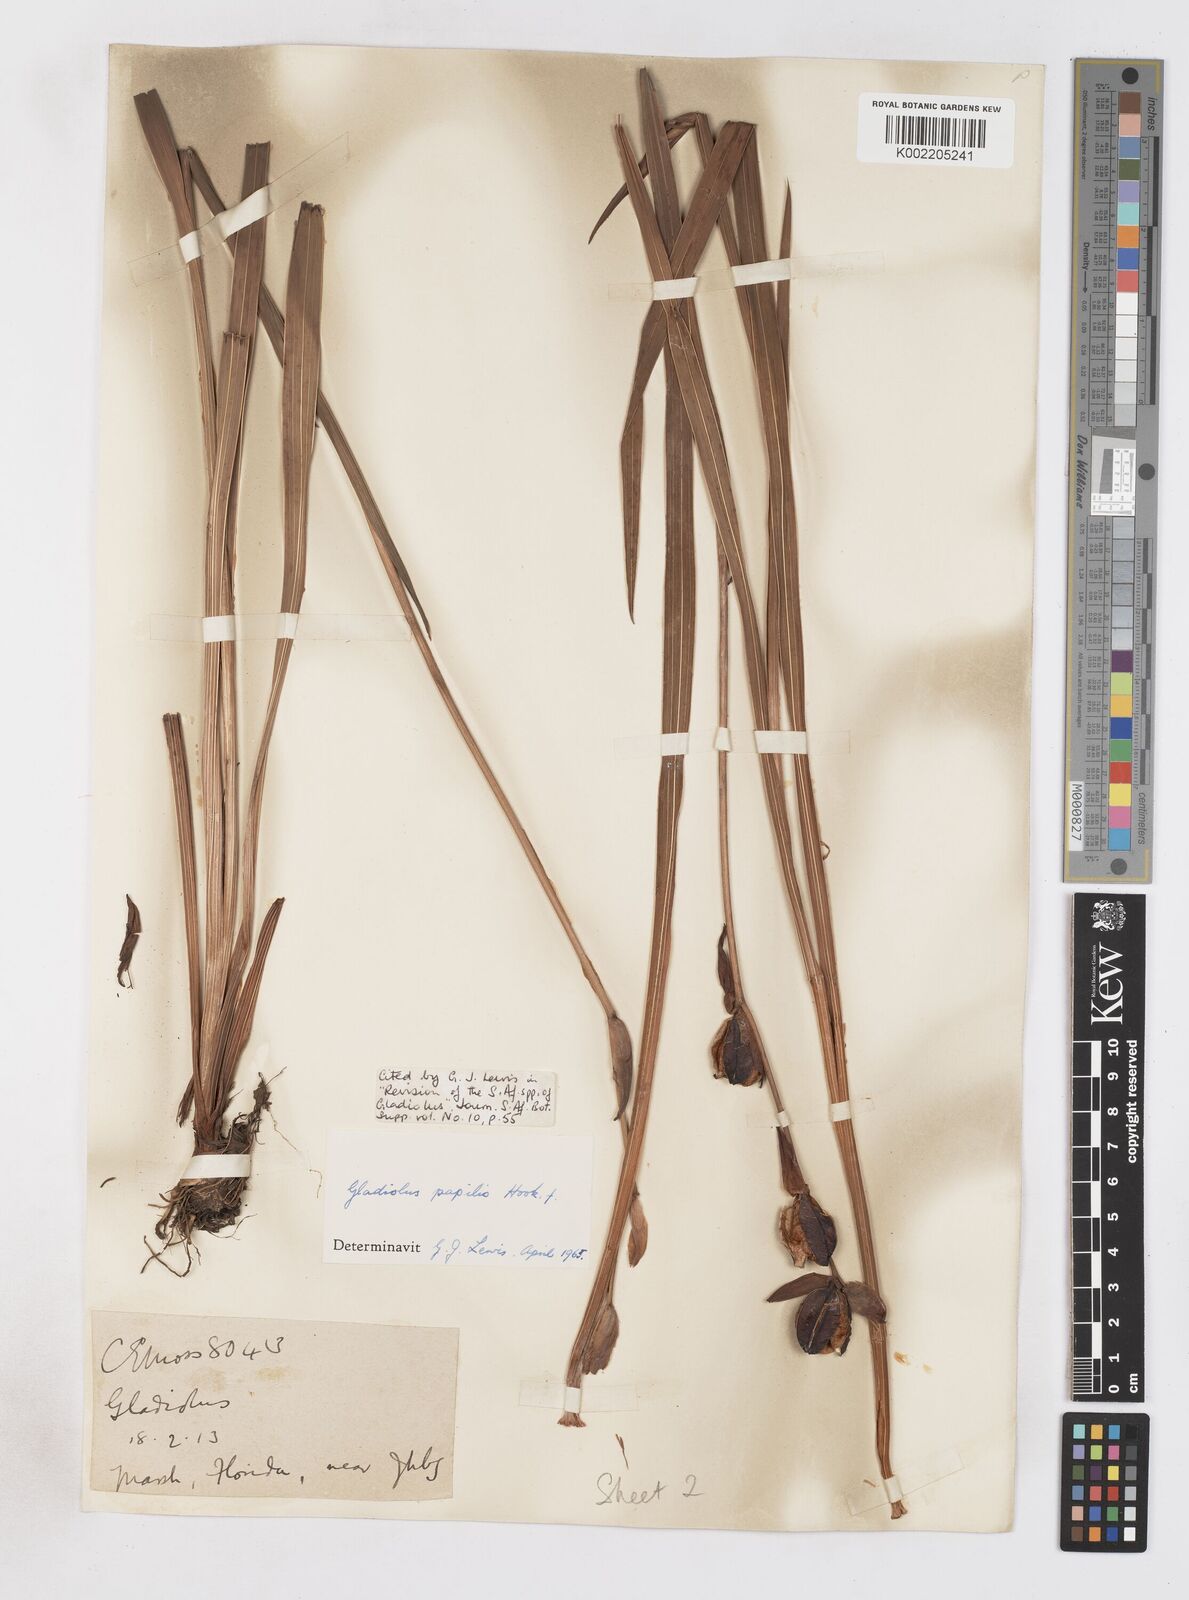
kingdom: Plantae
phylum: Tracheophyta
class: Liliopsida
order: Asparagales
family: Iridaceae
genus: Gladiolus
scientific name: Gladiolus papilio
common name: Goldblotch gladiolus
